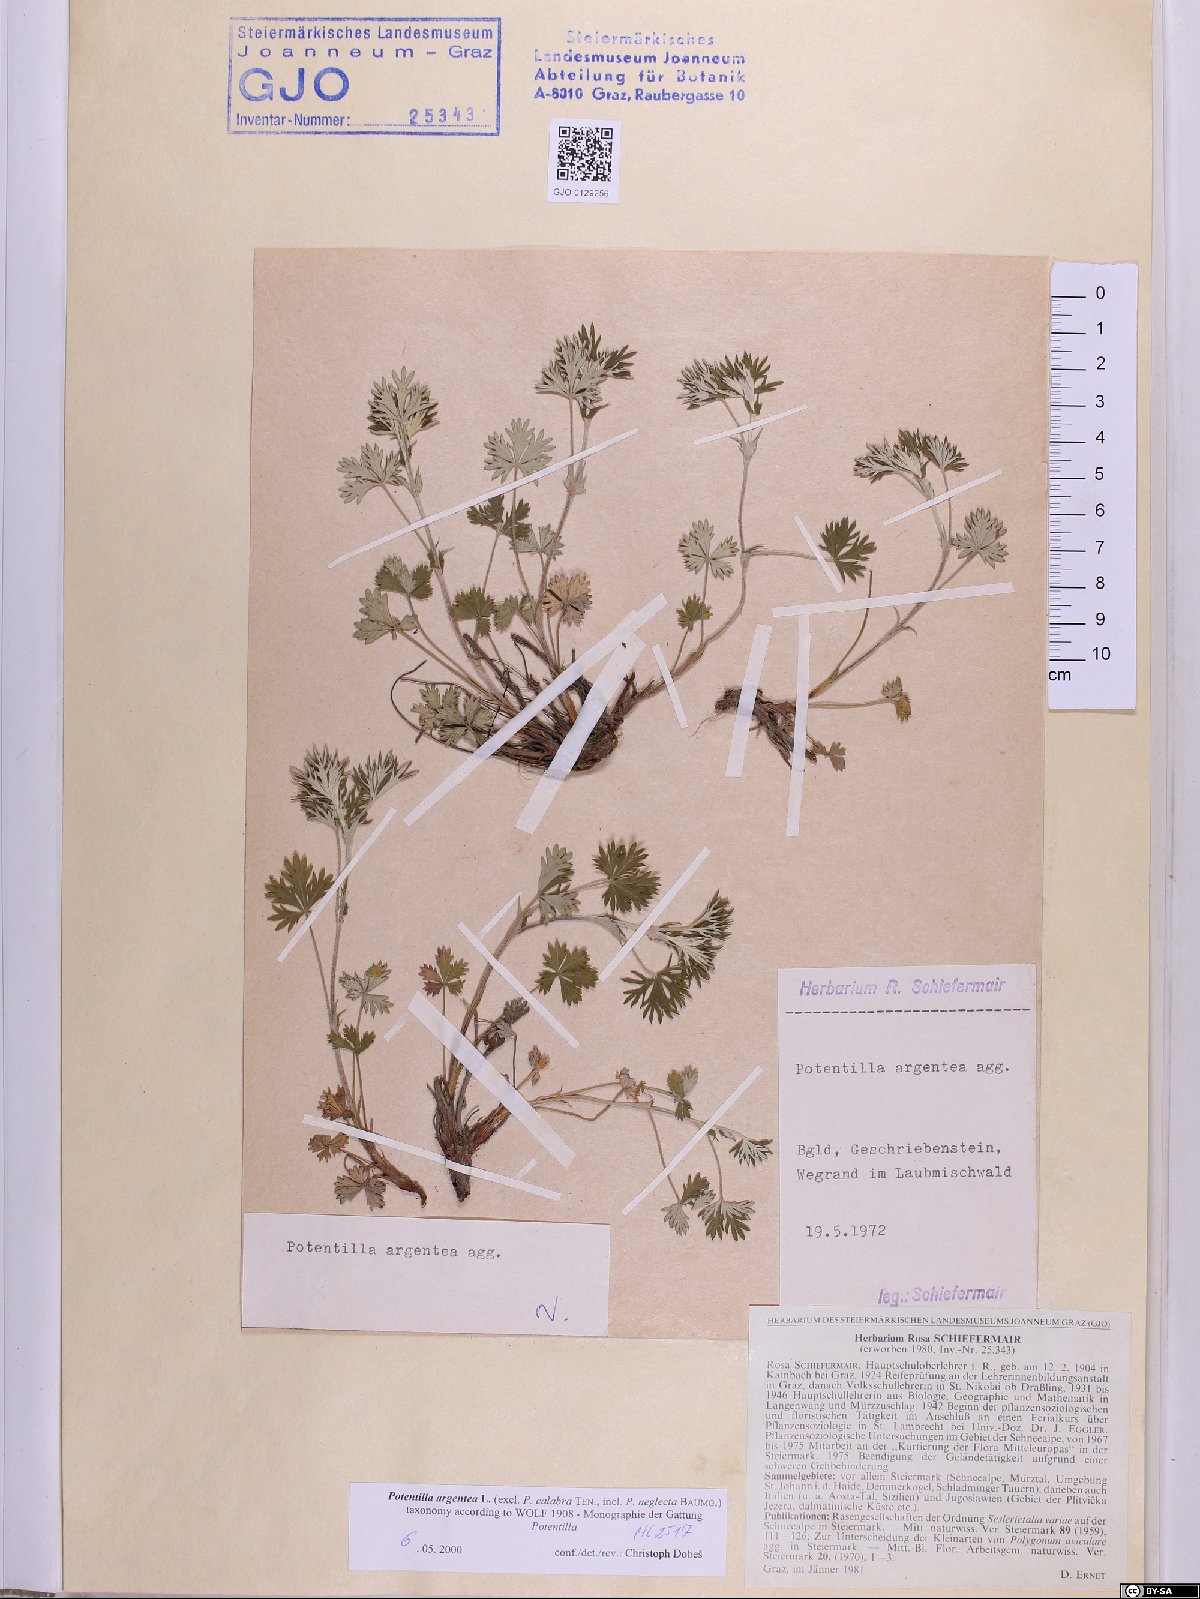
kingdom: Plantae
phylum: Tracheophyta
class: Magnoliopsida
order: Rosales
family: Rosaceae
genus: Potentilla
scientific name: Potentilla argentea
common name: Hoary cinquefoil
